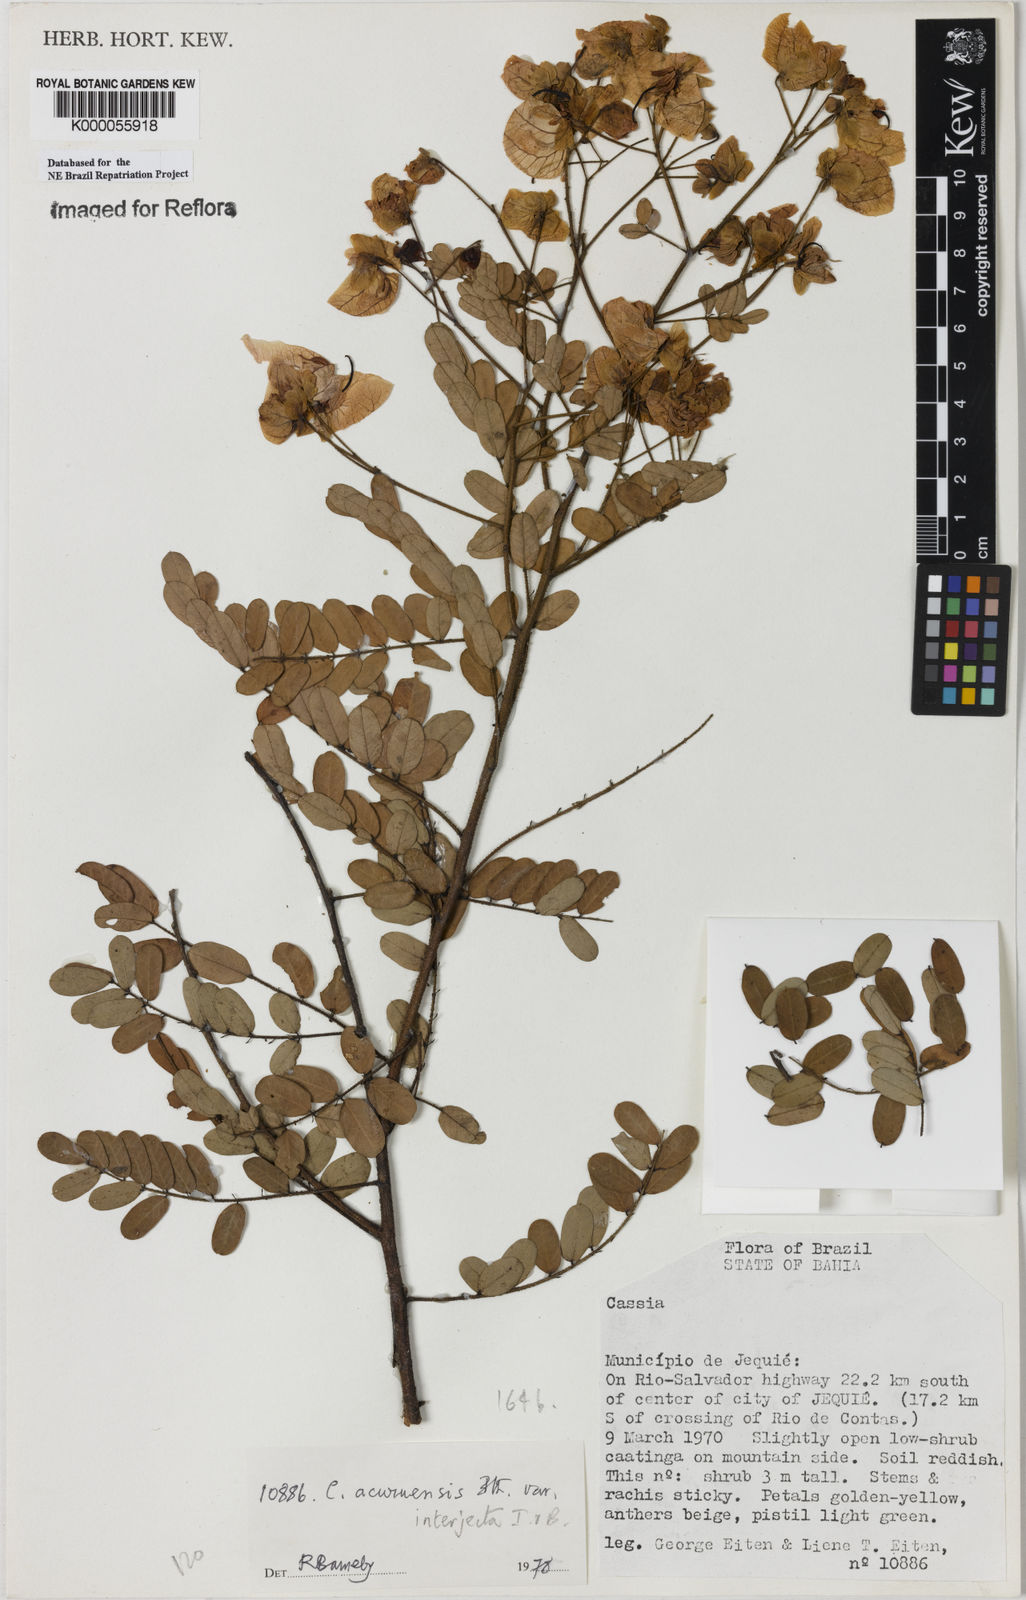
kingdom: Plantae
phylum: Tracheophyta
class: Magnoliopsida
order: Fabales
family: Fabaceae
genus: Senna
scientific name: Senna acuruensis
